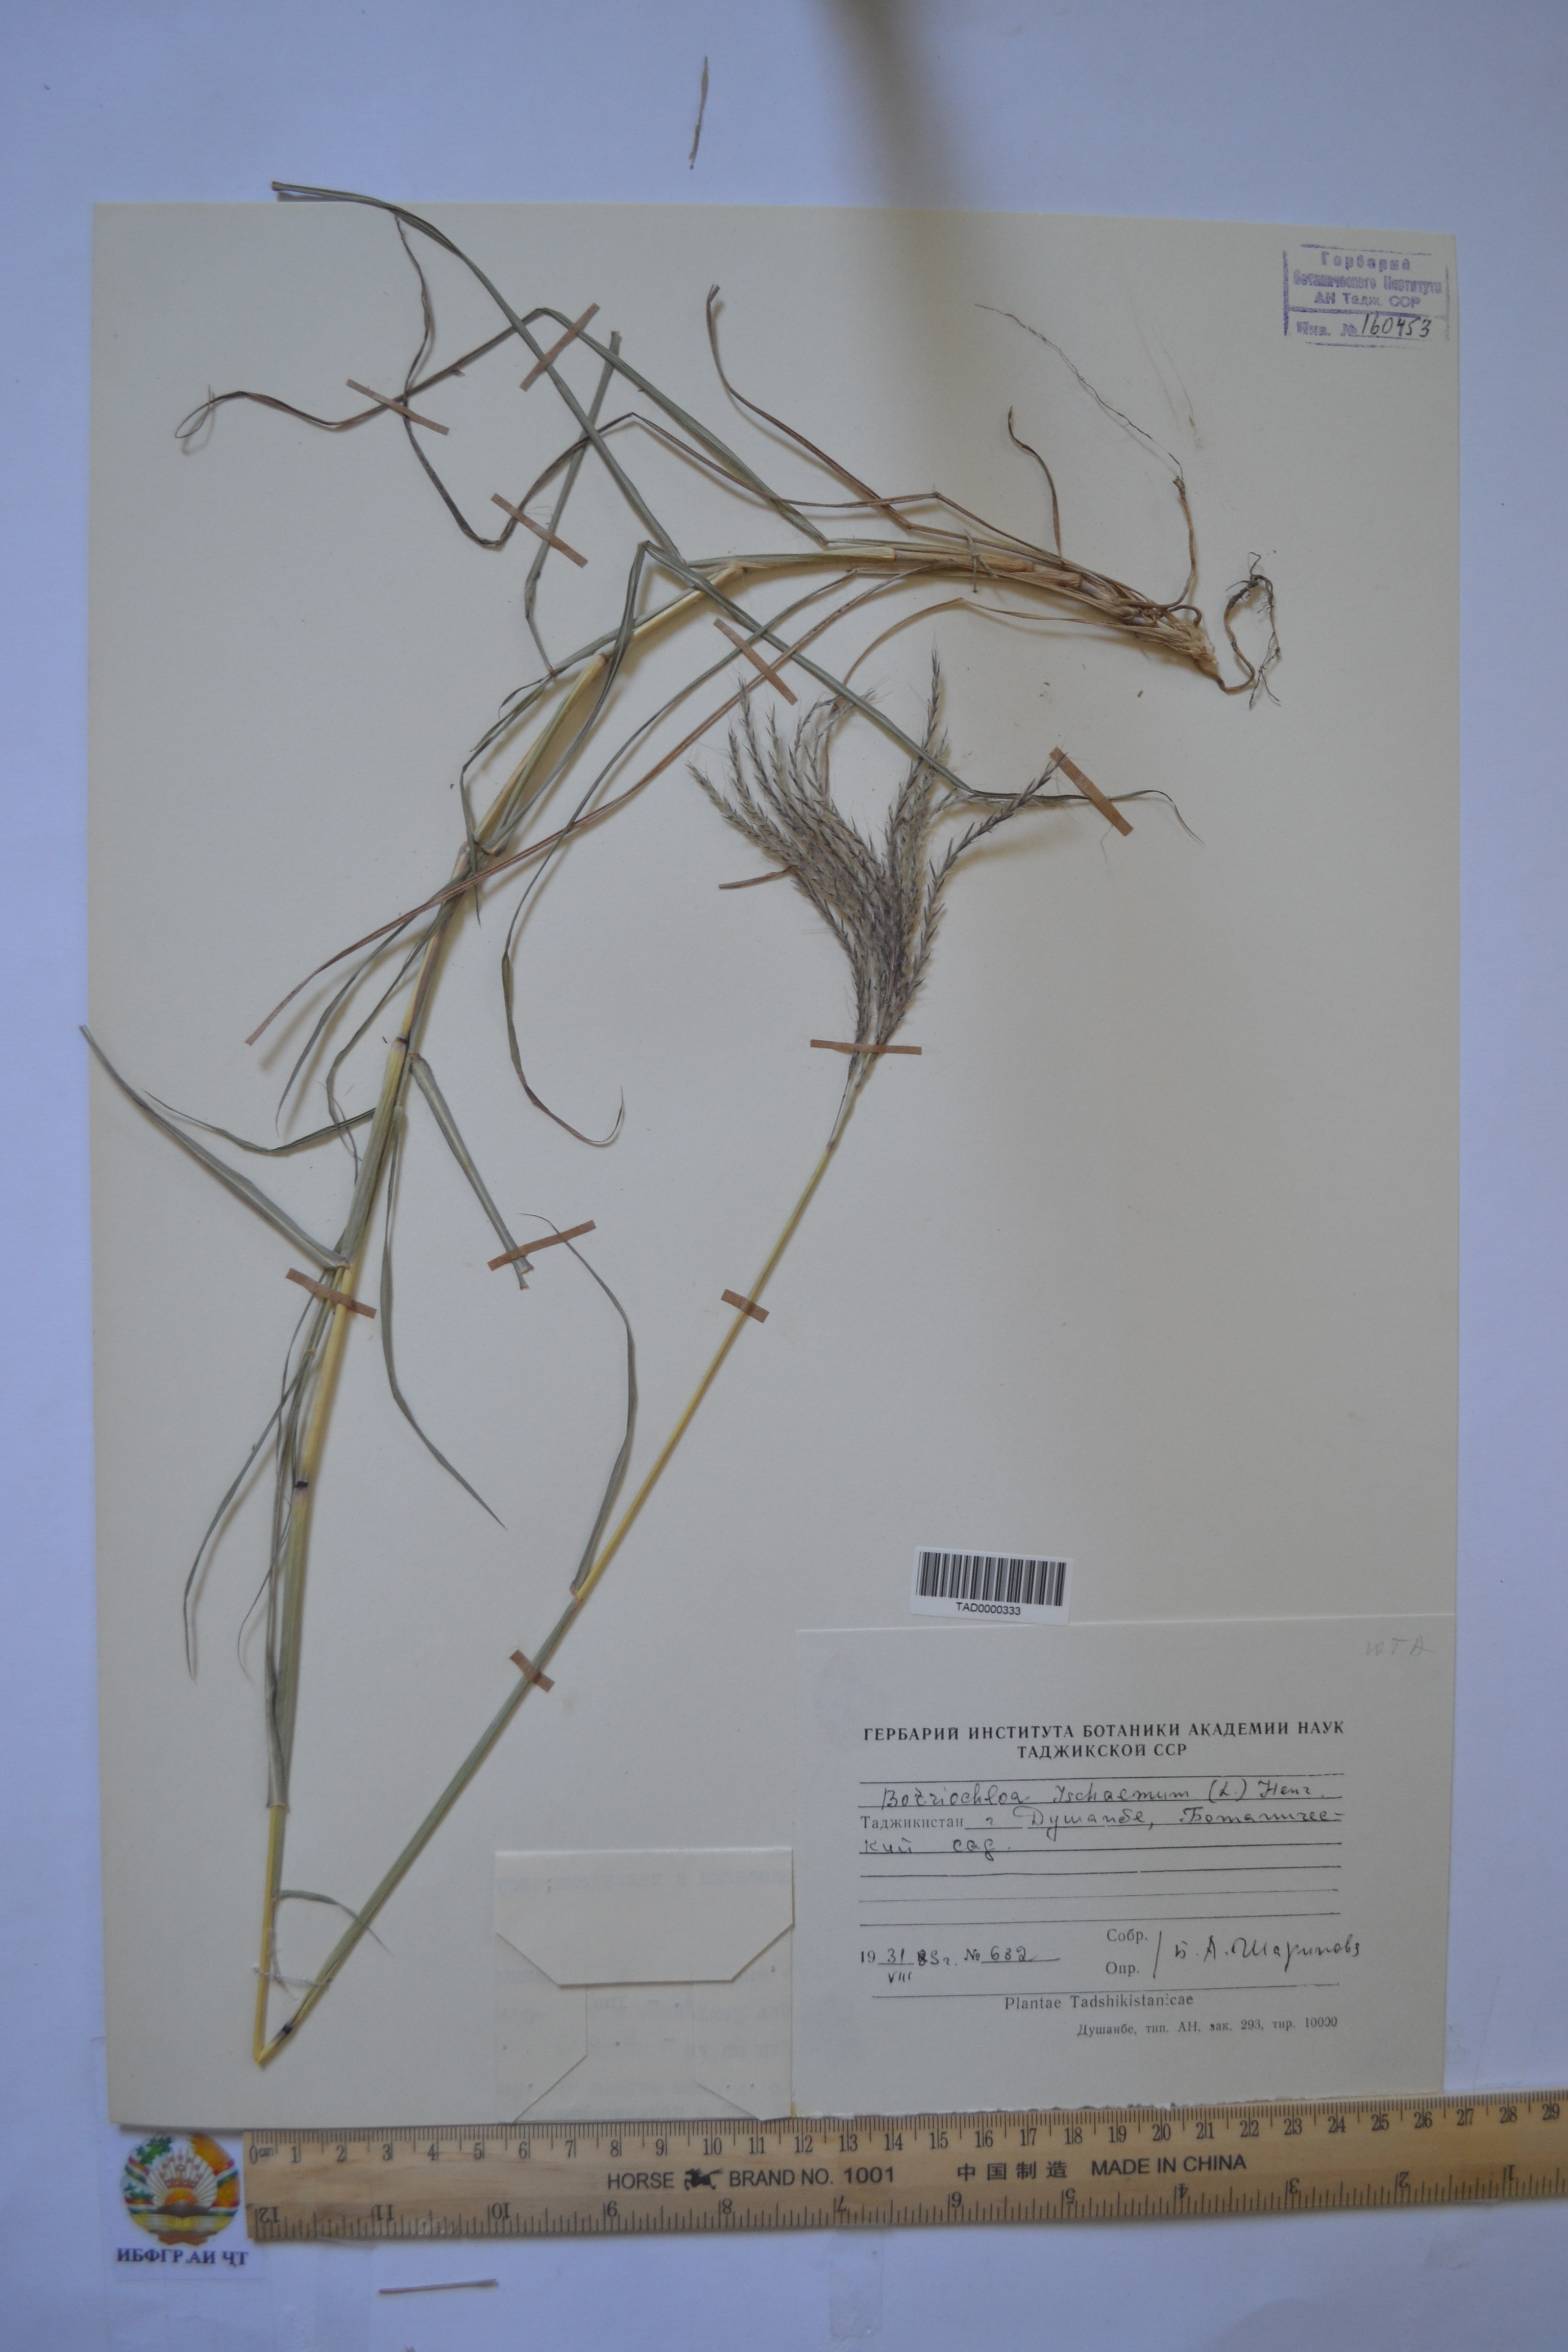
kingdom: Plantae
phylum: Tracheophyta
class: Liliopsida
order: Poales
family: Poaceae
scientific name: Poaceae
